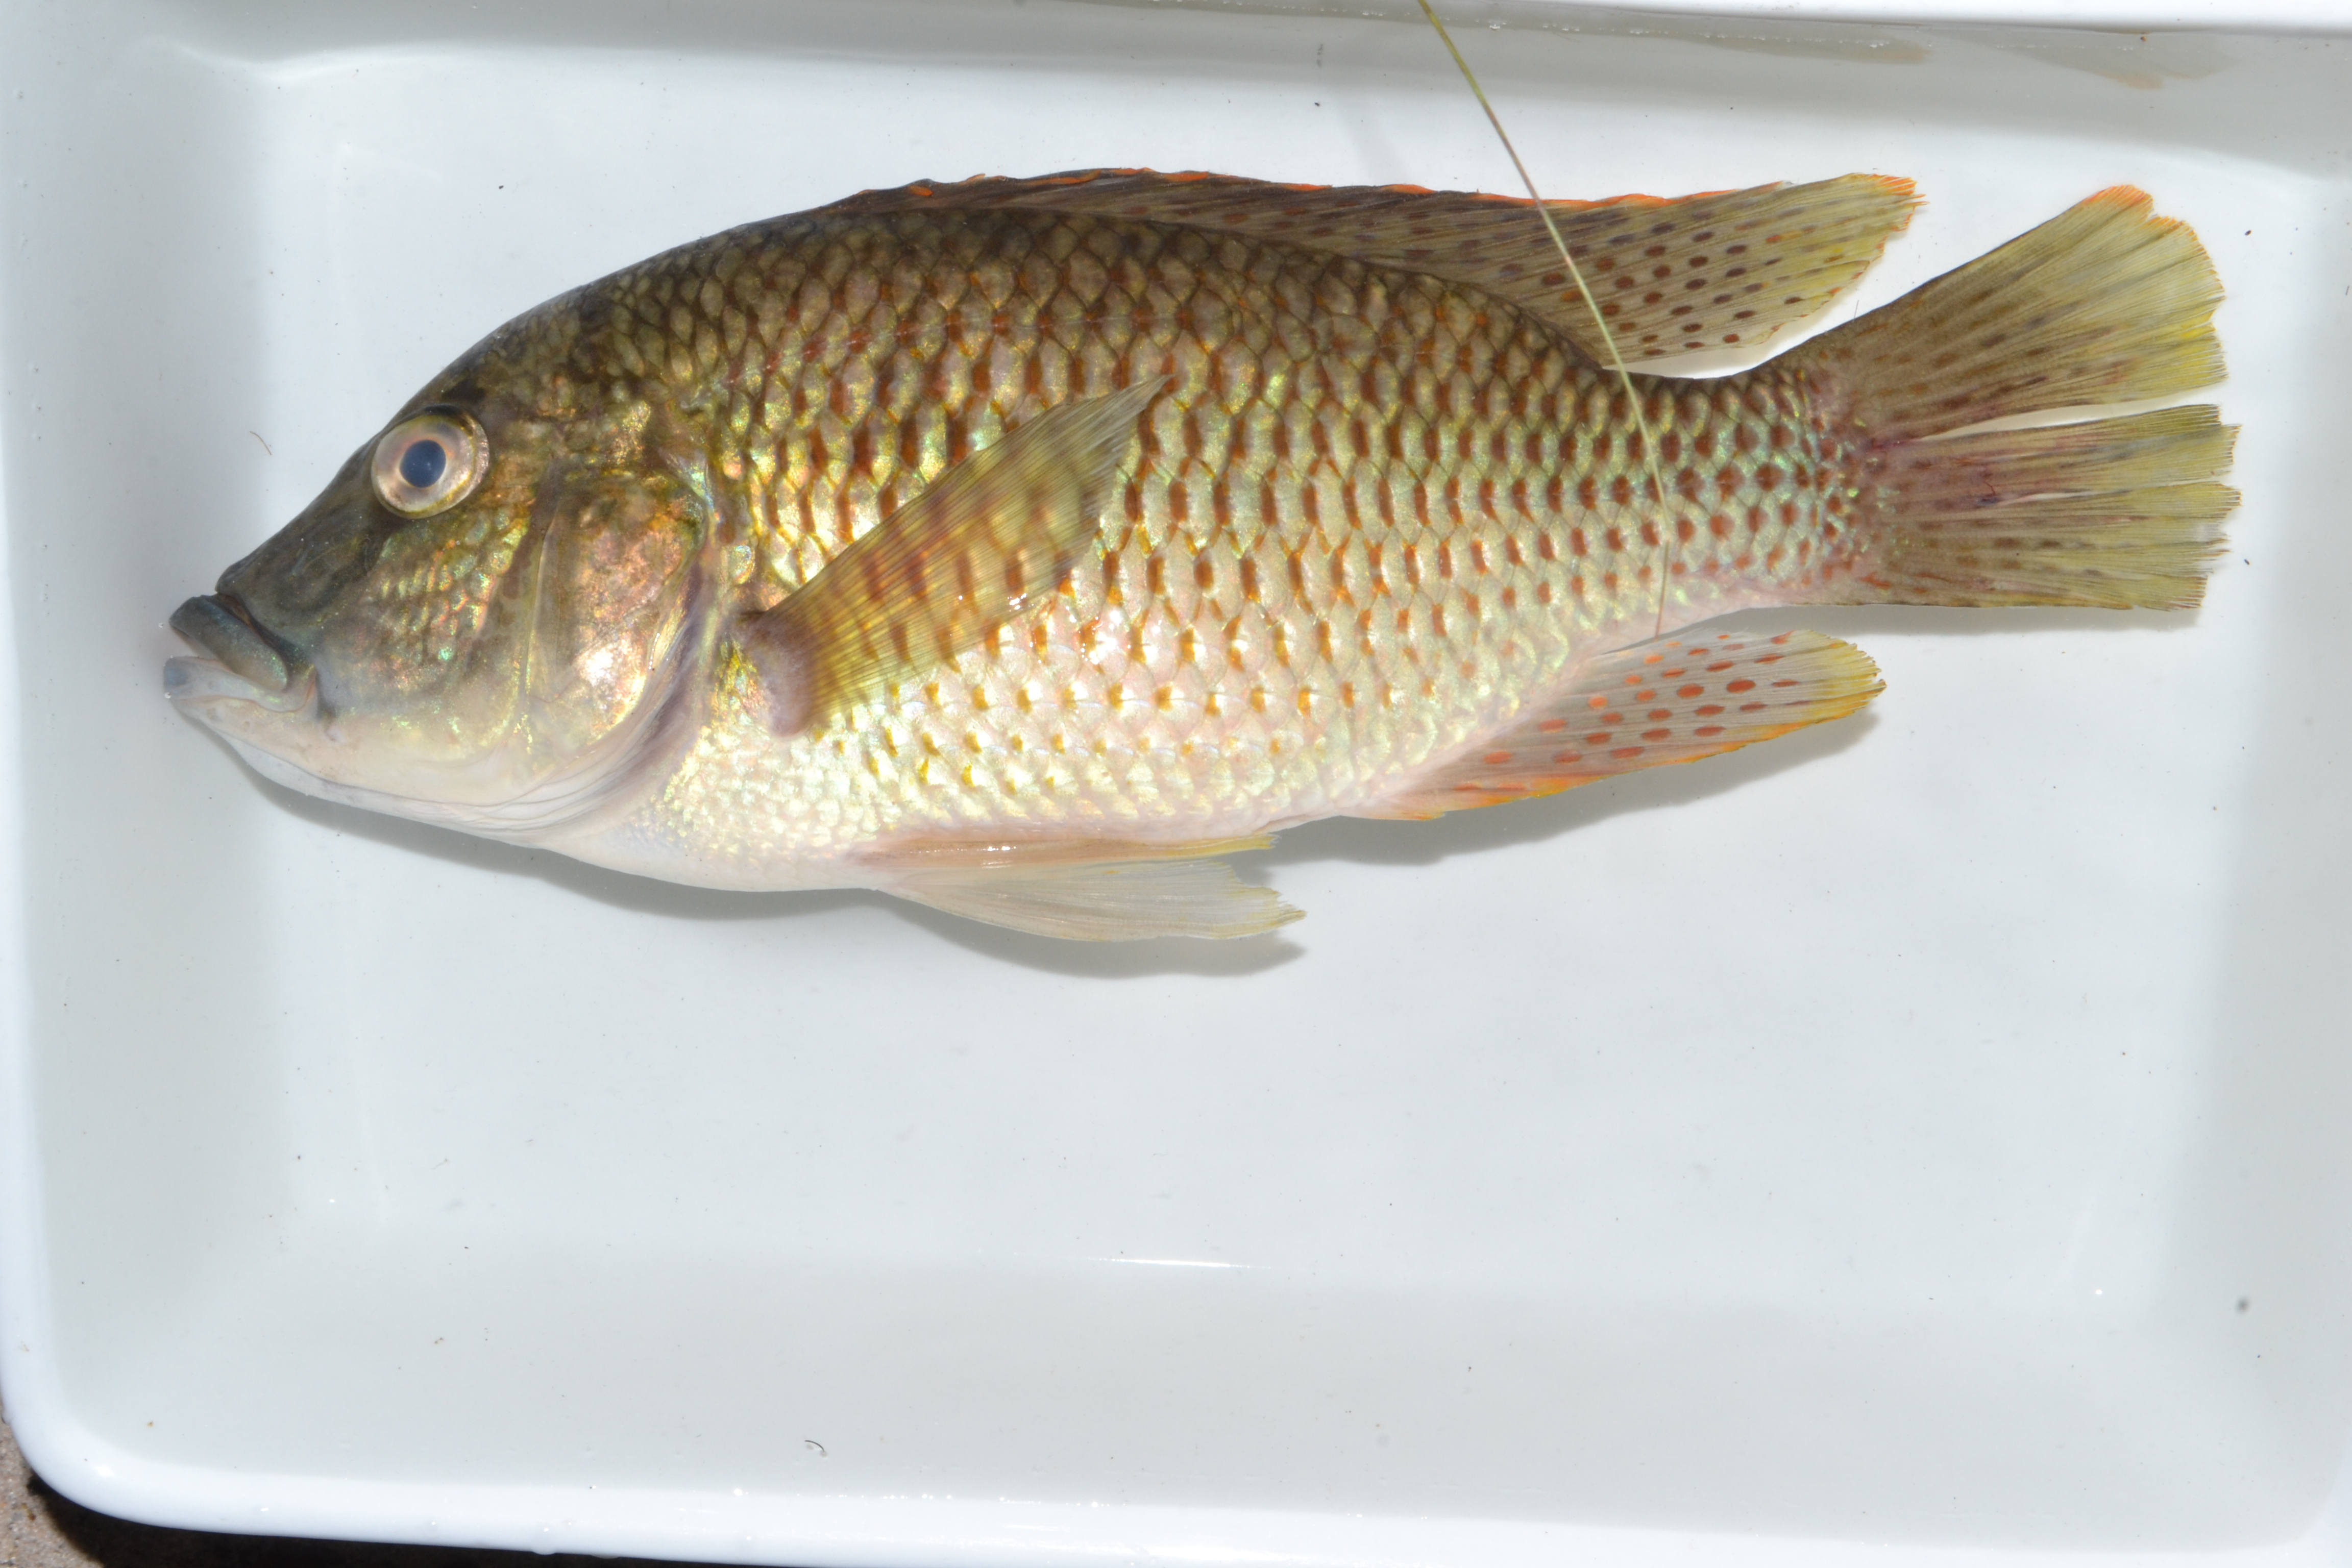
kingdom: Animalia
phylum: Chordata
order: Perciformes
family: Cichlidae
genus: Sargochromis
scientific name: Sargochromis
